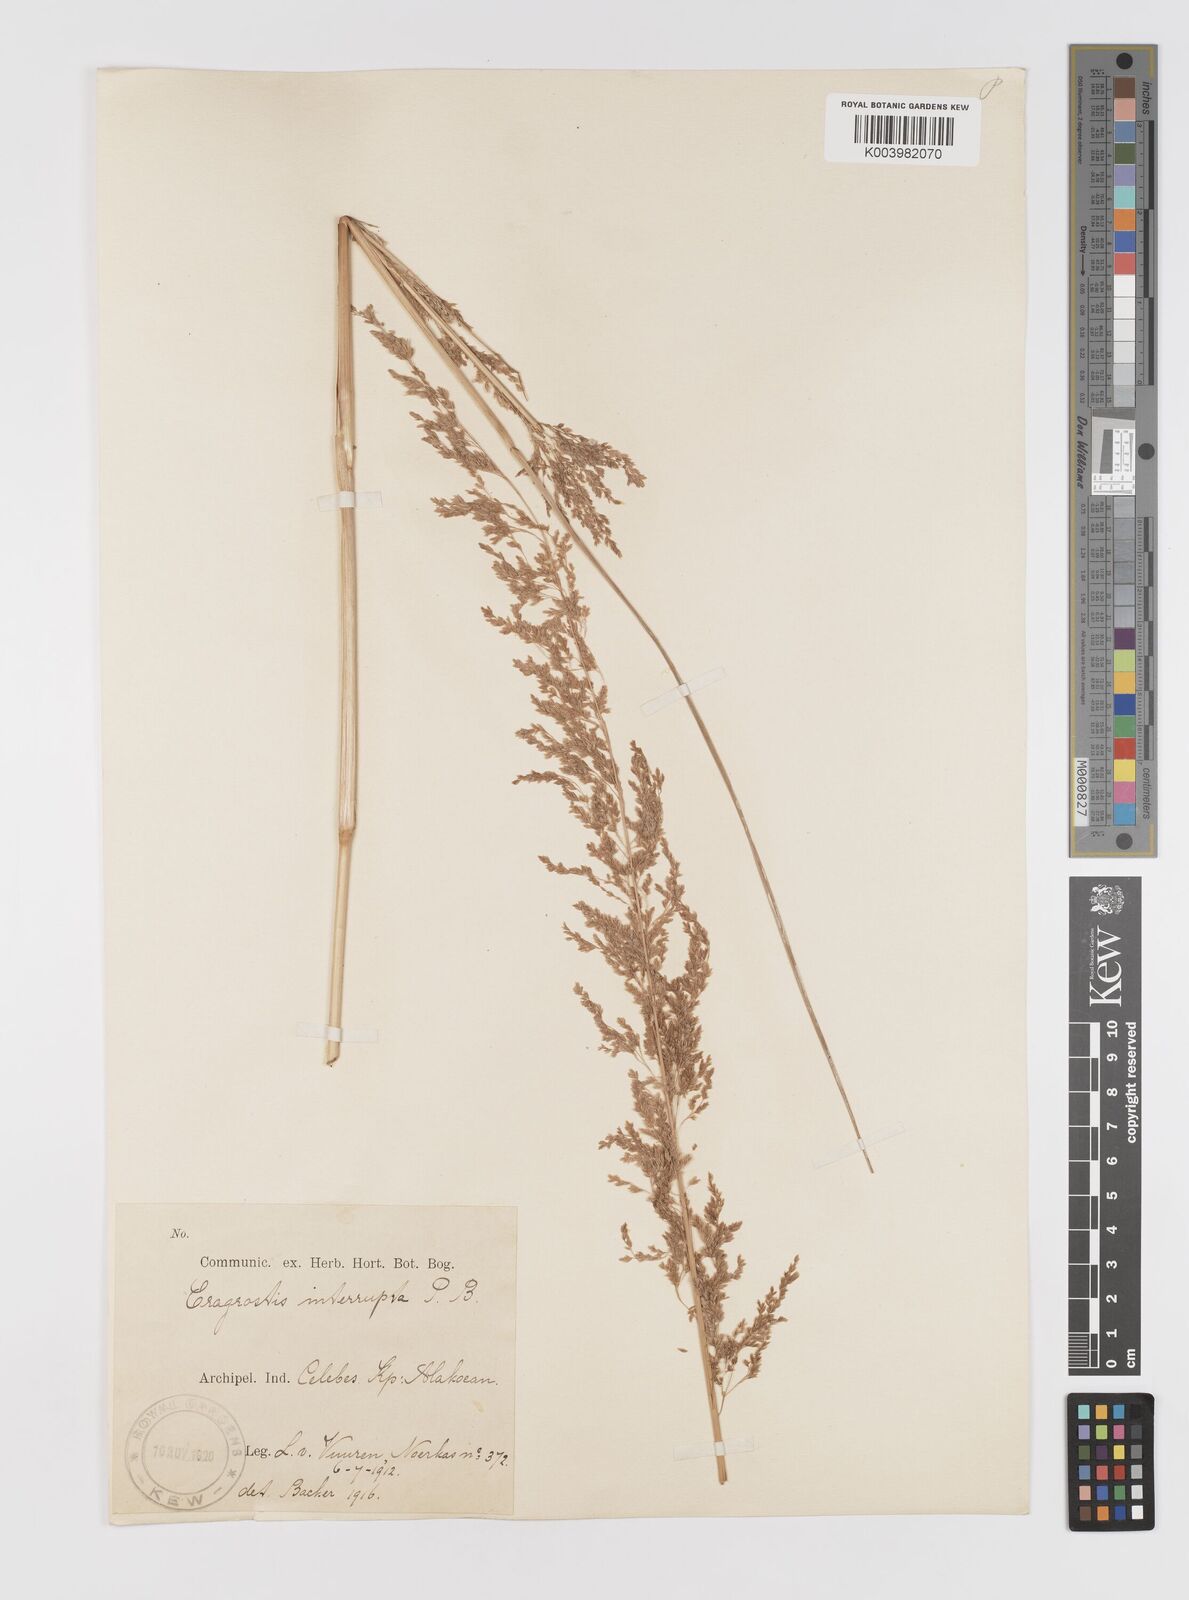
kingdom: Plantae
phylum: Tracheophyta
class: Liliopsida
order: Poales
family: Poaceae
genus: Eragrostis
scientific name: Eragrostis japonica
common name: Pond lovegrass
